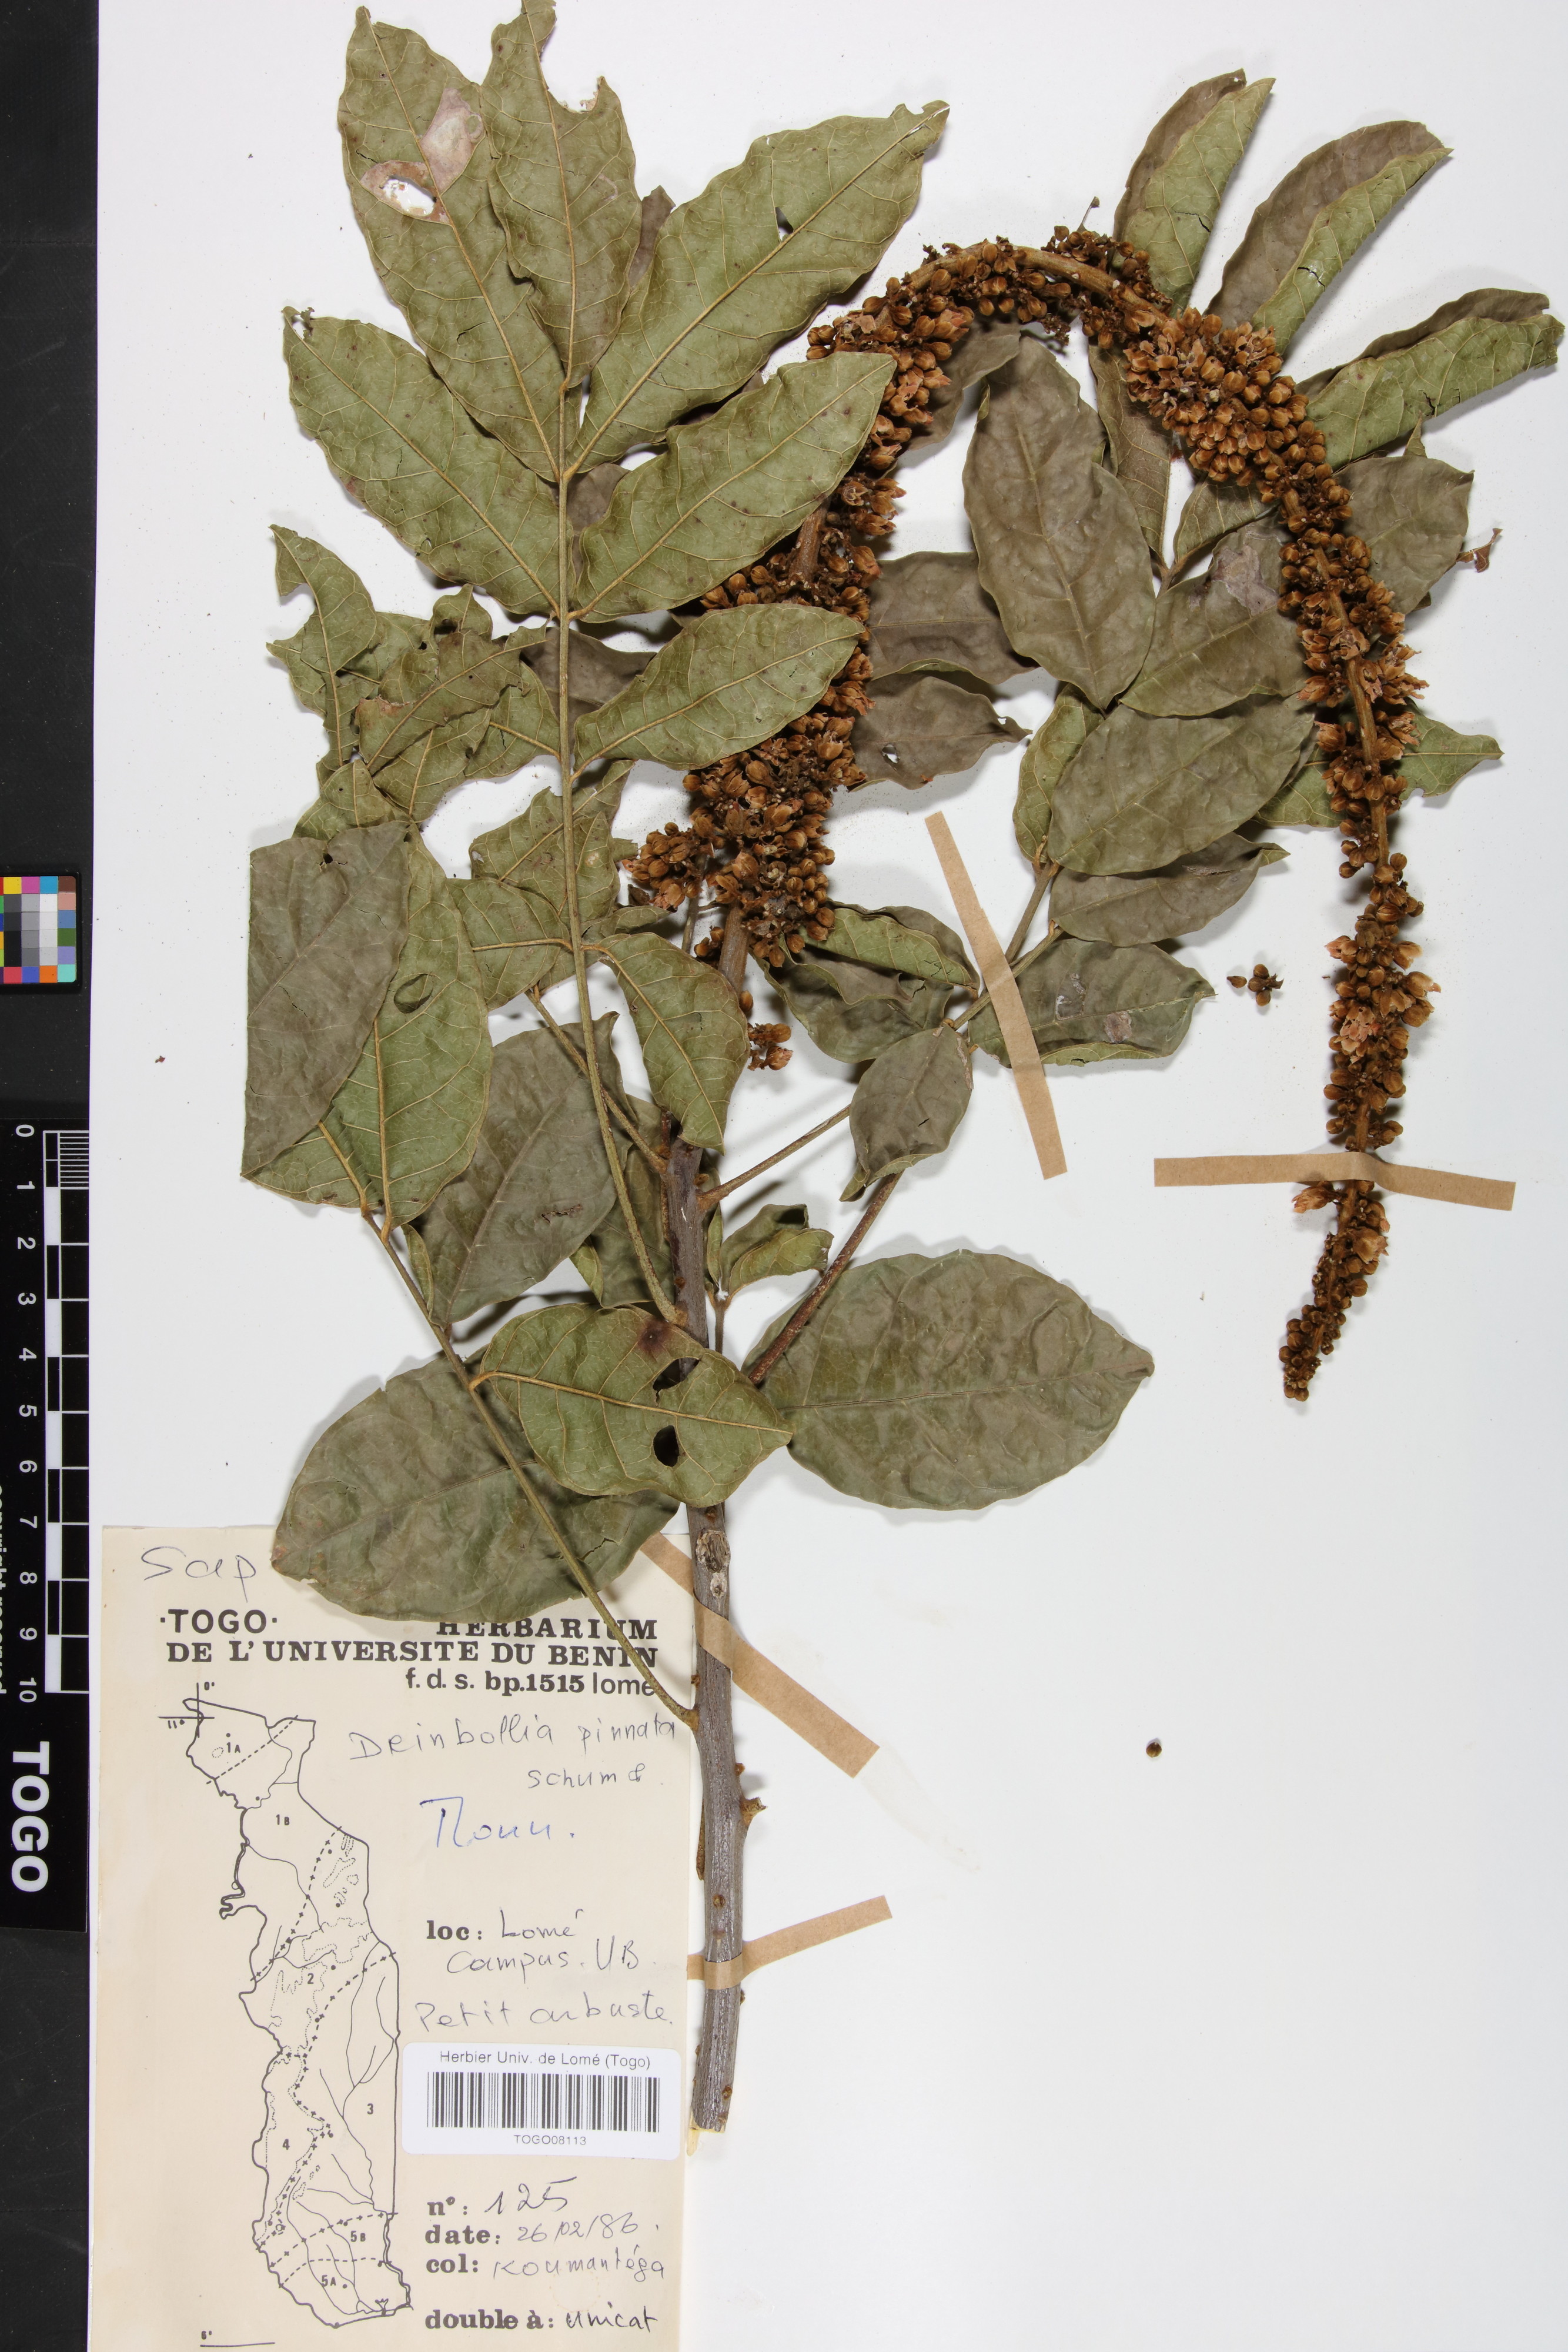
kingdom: Plantae
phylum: Tracheophyta
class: Magnoliopsida
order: Sapindales
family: Sapindaceae
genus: Deinbollia
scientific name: Deinbollia pinnata
